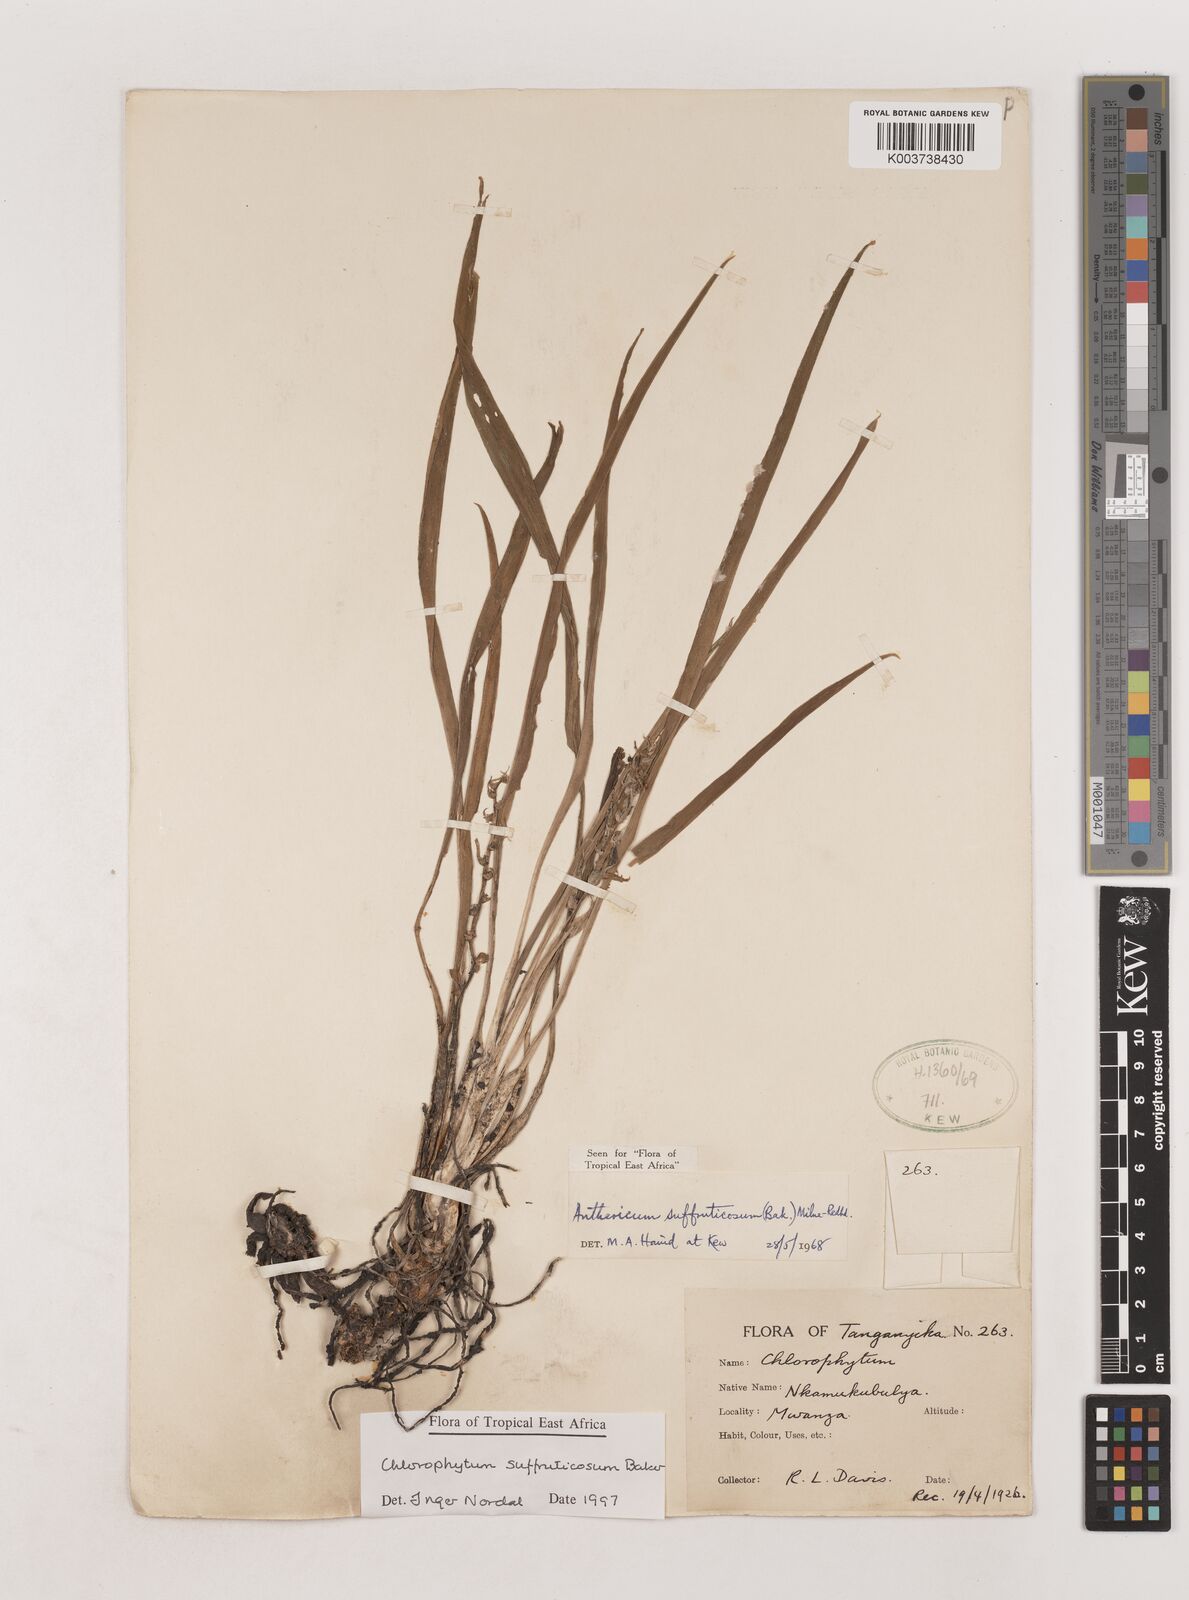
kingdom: Plantae
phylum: Tracheophyta
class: Liliopsida
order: Asparagales
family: Asparagaceae
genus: Chlorophytum
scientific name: Chlorophytum suffruticosum
